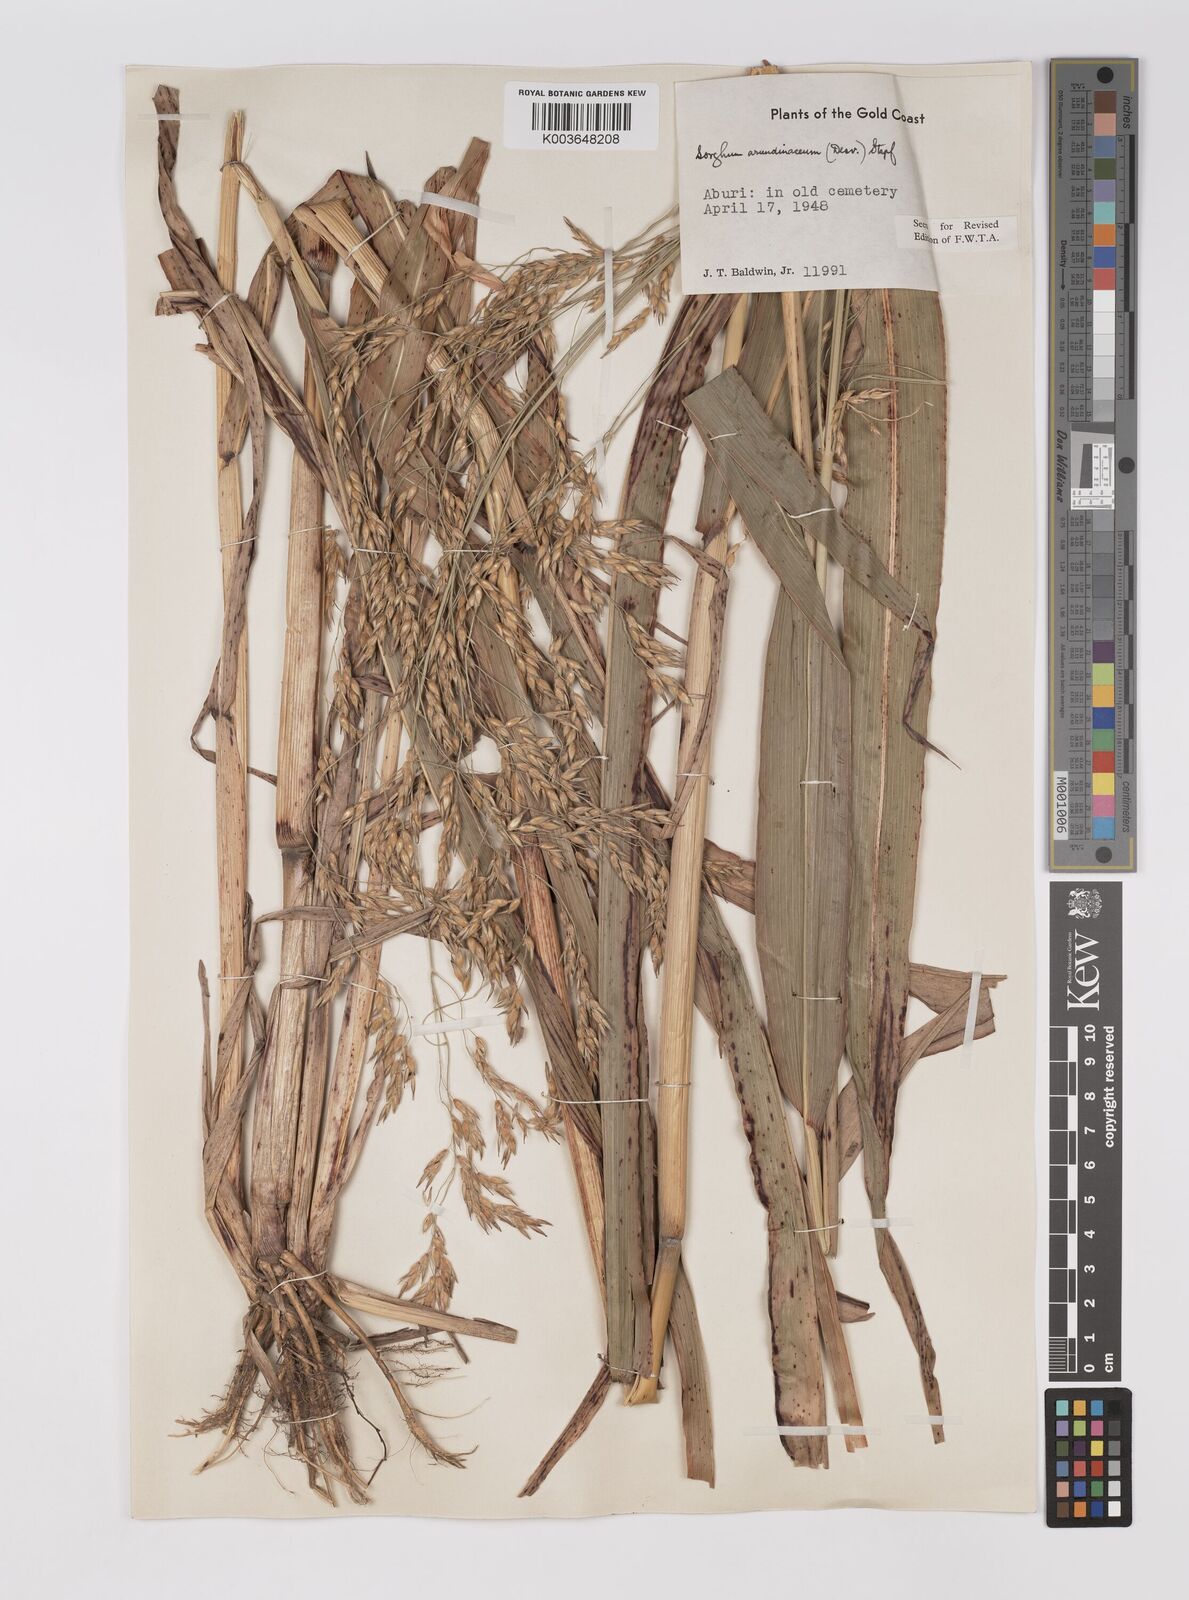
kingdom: Plantae
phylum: Tracheophyta
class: Liliopsida
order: Poales
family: Poaceae
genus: Sorghum
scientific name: Sorghum arundinaceum
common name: Sorghum
